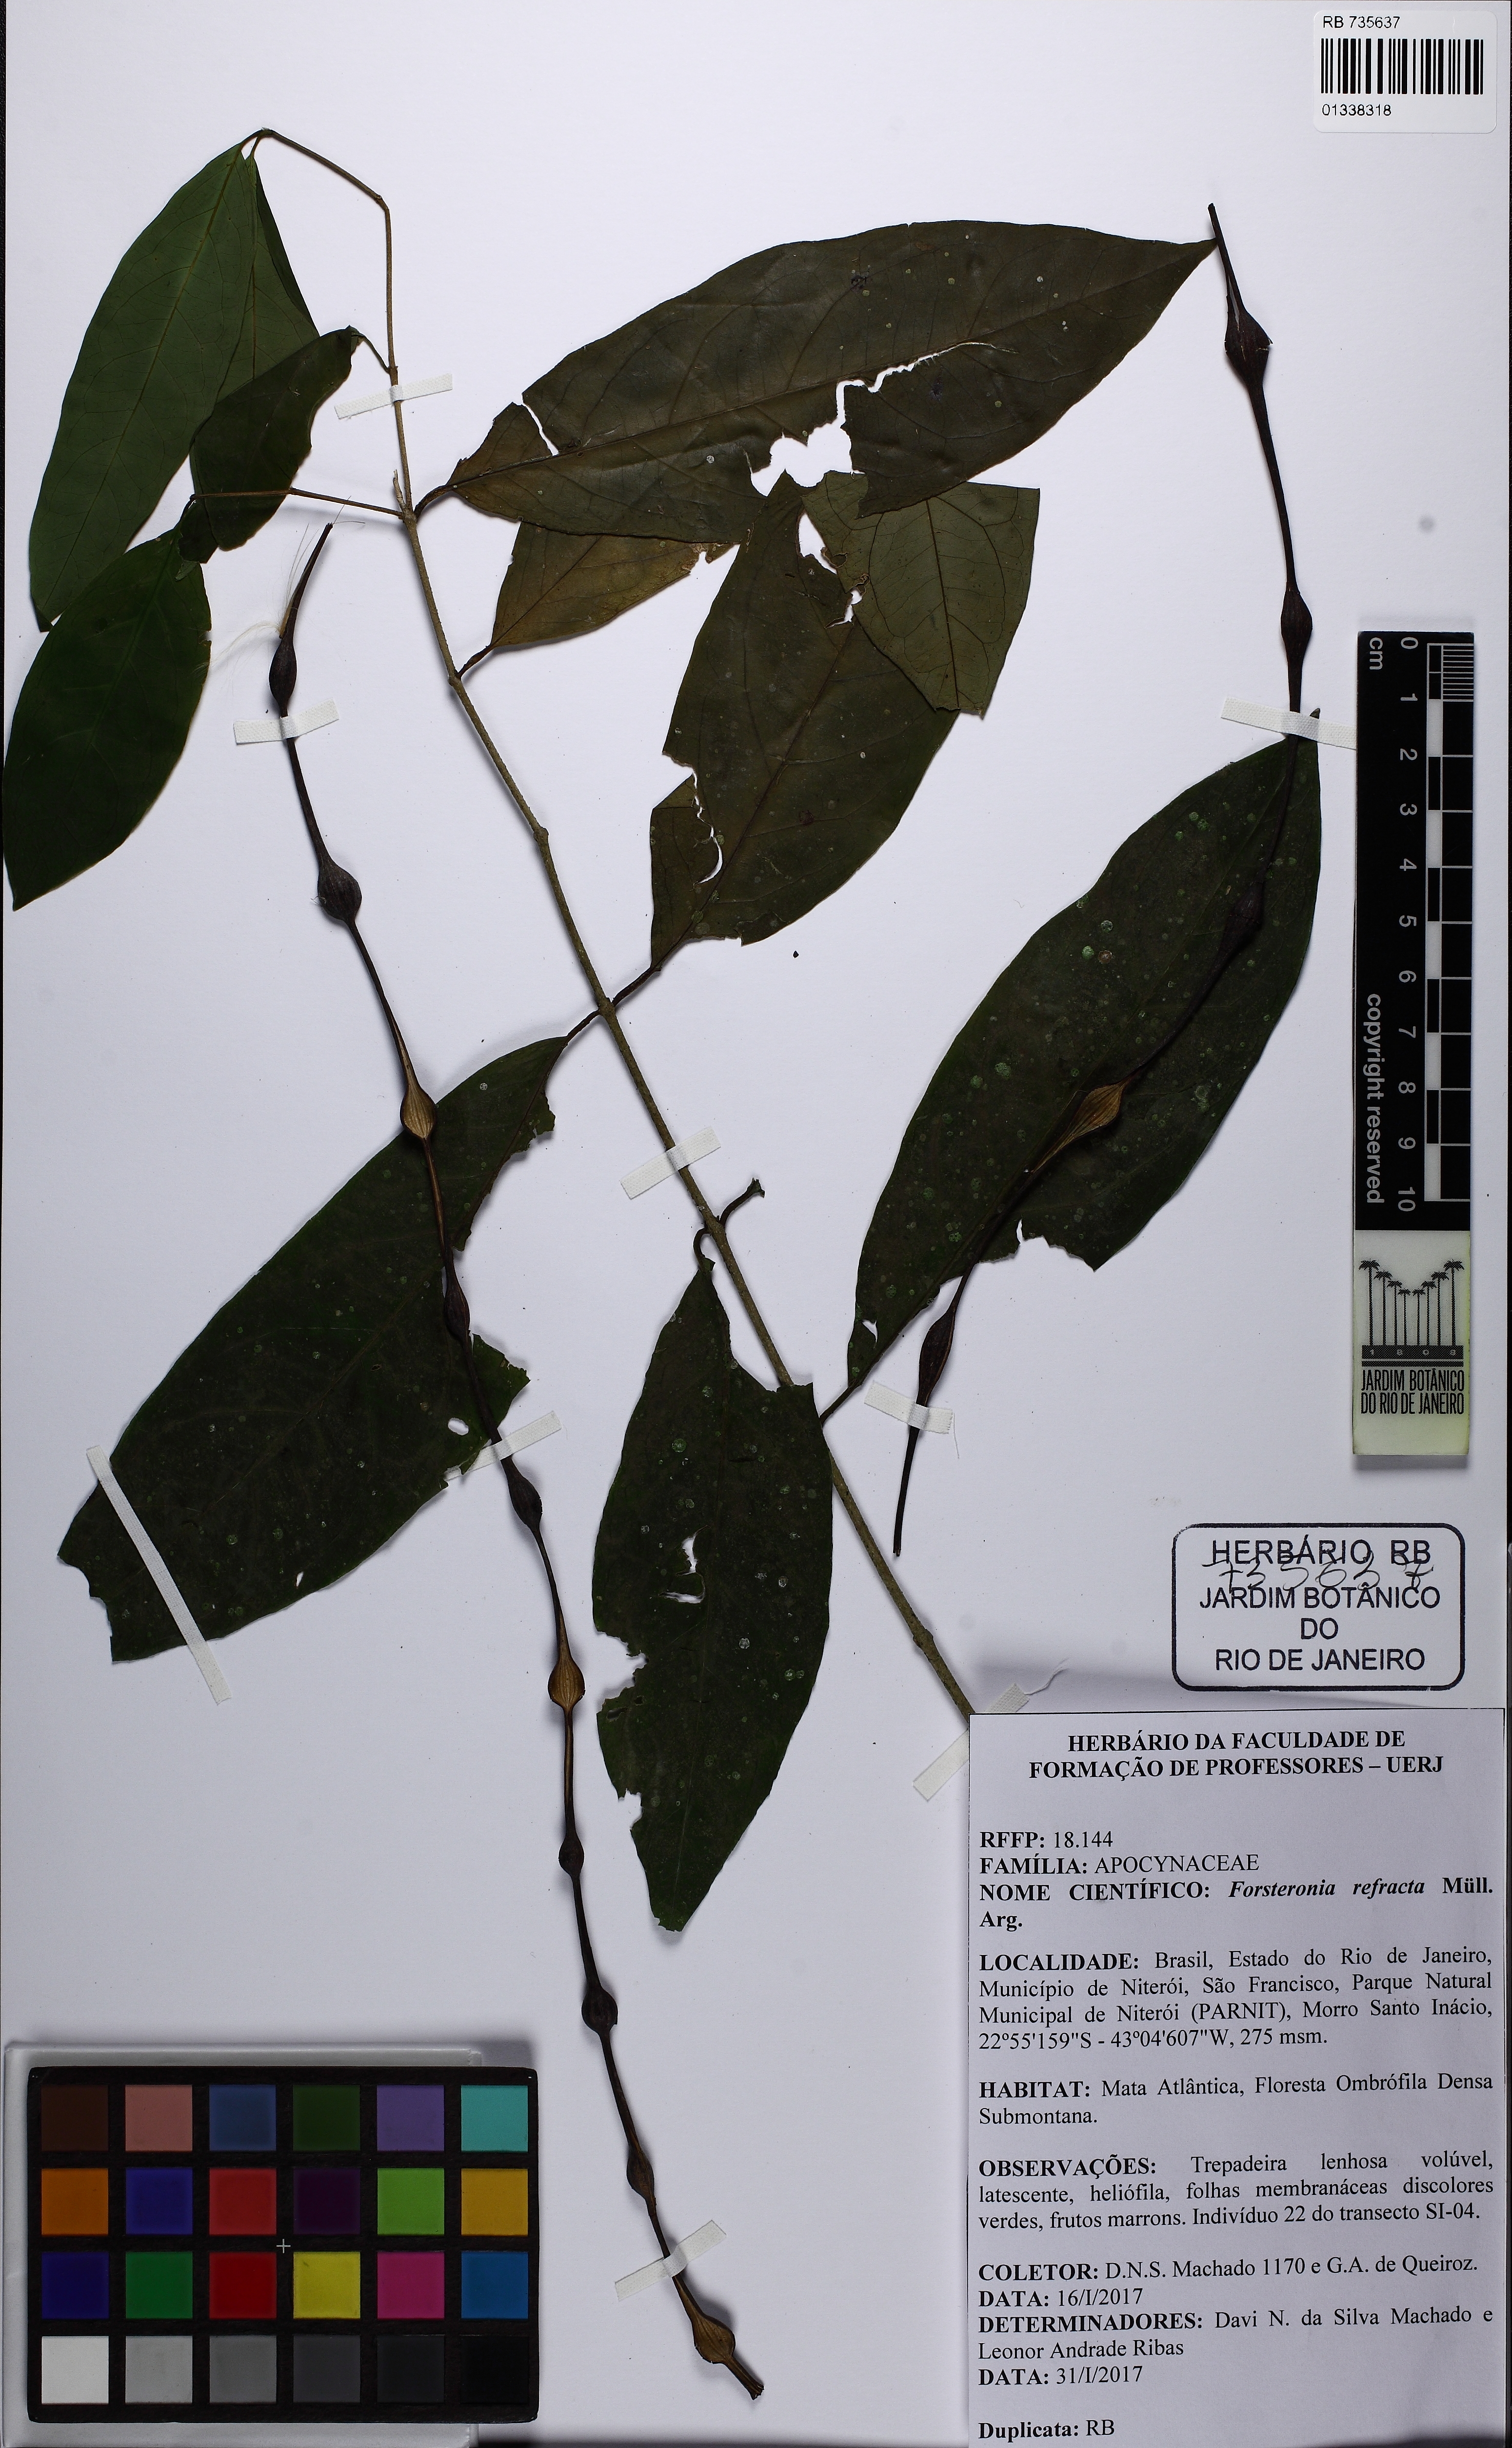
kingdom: Plantae
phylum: Tracheophyta
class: Magnoliopsida
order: Gentianales
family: Apocynaceae
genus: Forsteronia
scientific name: Forsteronia refracta
